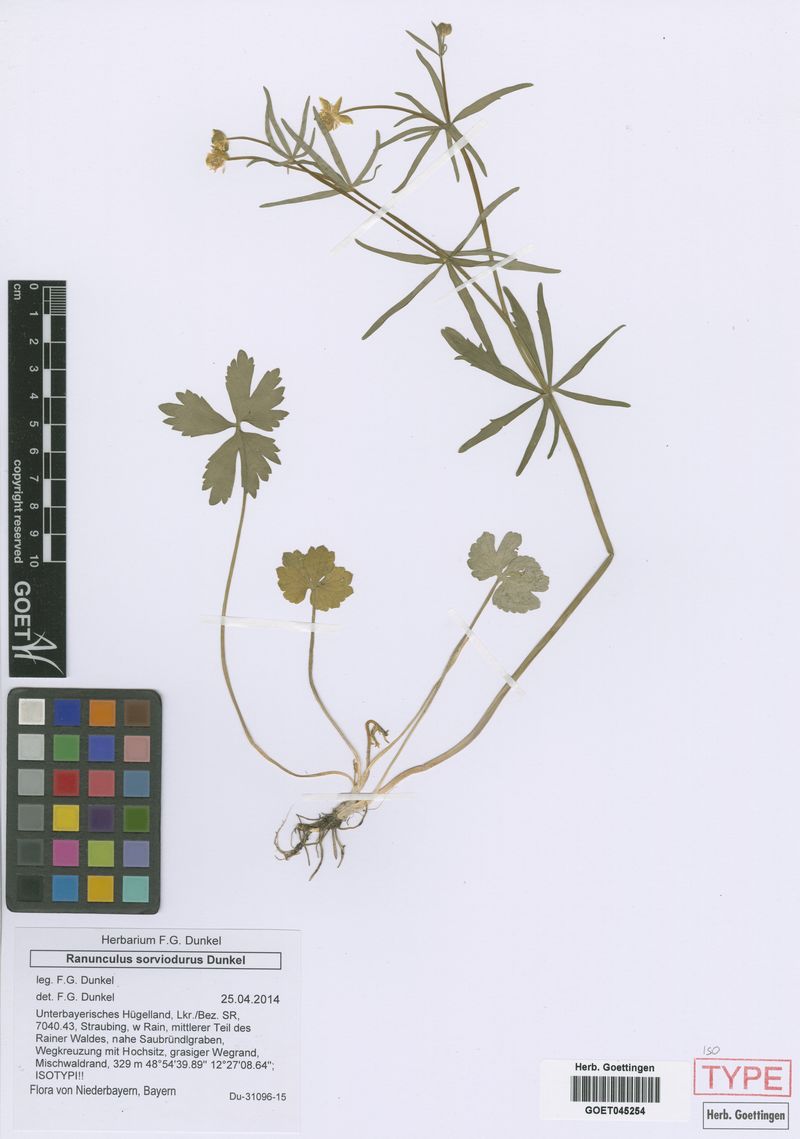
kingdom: Plantae
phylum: Tracheophyta
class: Magnoliopsida
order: Ranunculales
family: Ranunculaceae
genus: Ranunculus
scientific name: Ranunculus sorviodurus
